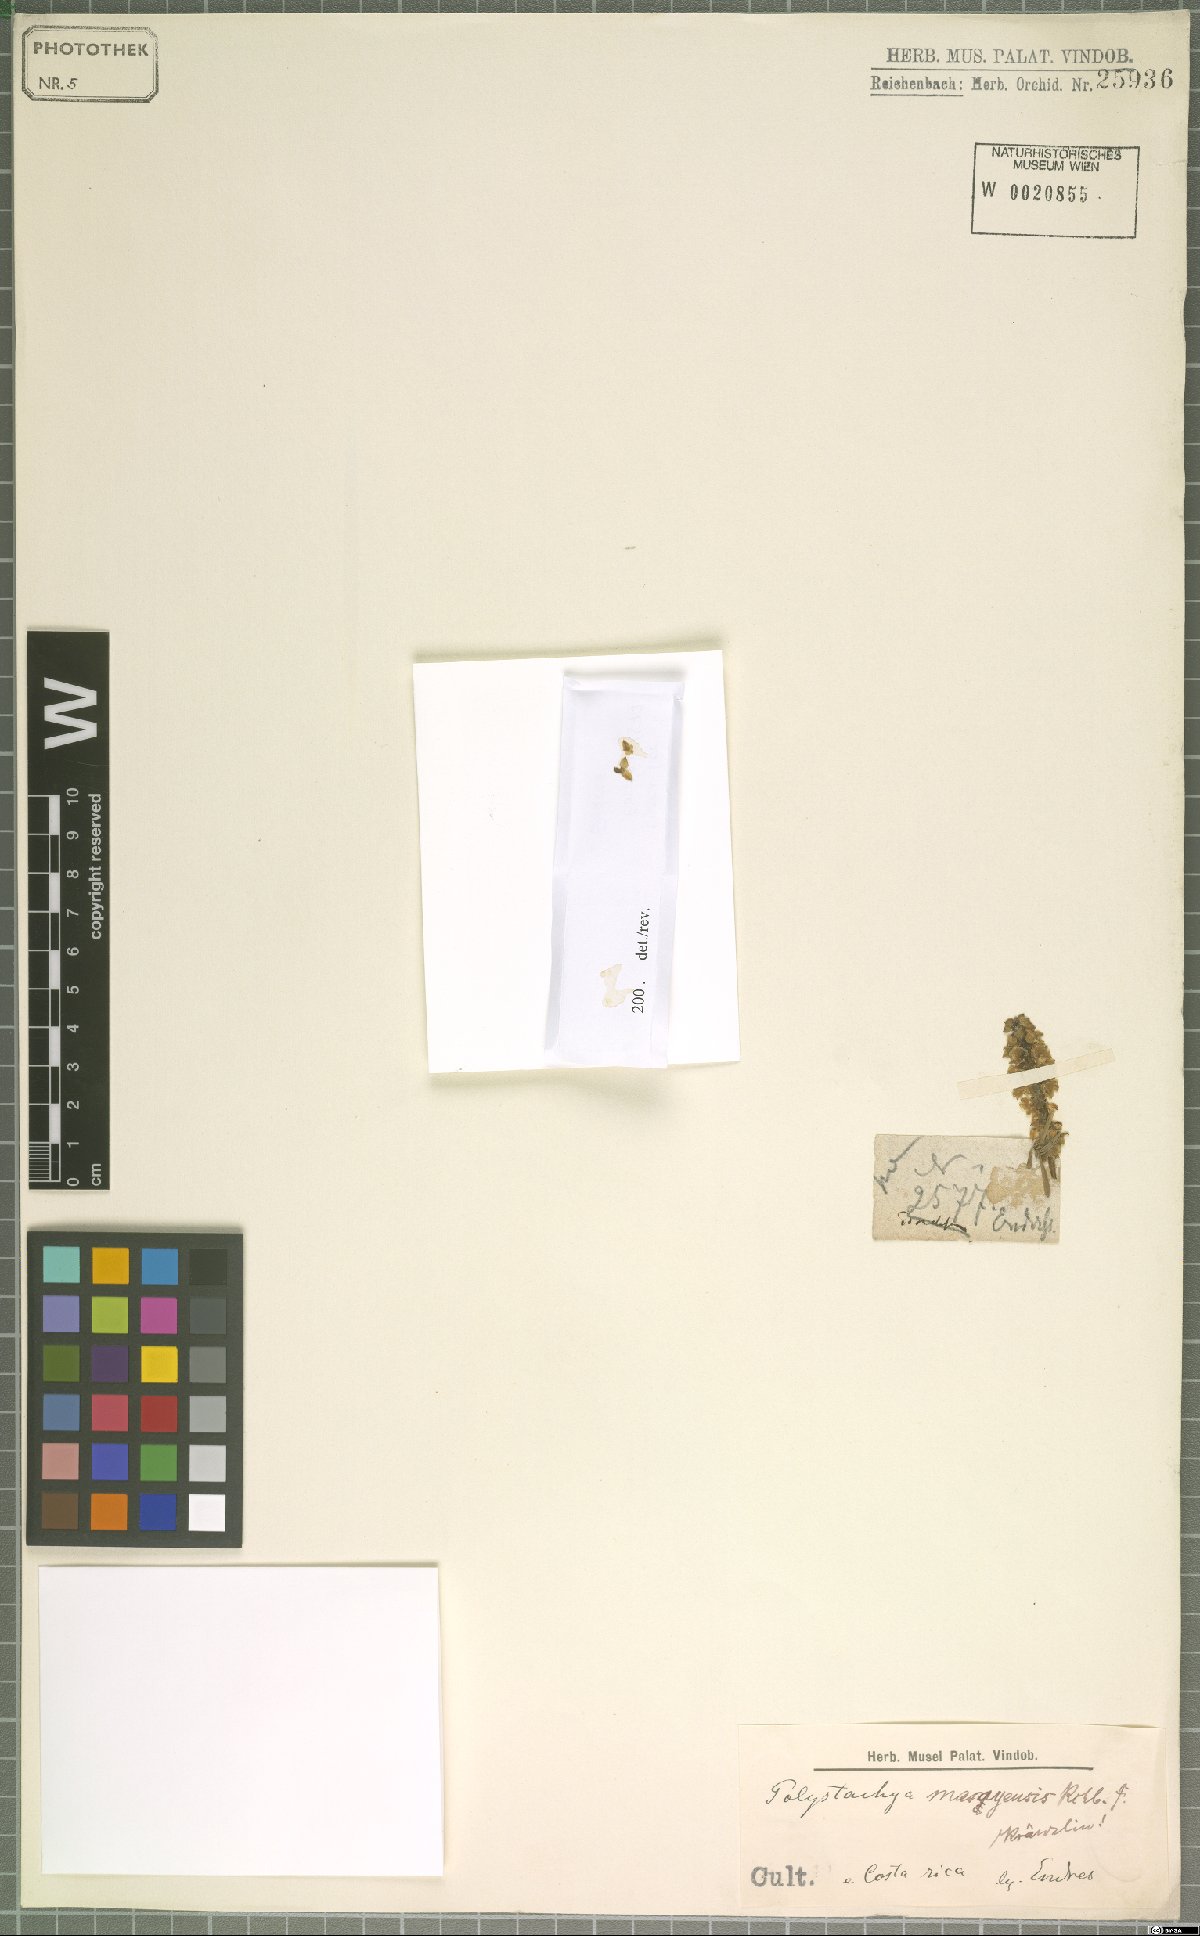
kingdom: Plantae
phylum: Tracheophyta
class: Liliopsida
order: Asparagales
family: Orchidaceae
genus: Polystachya
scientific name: Polystachya masayensis
